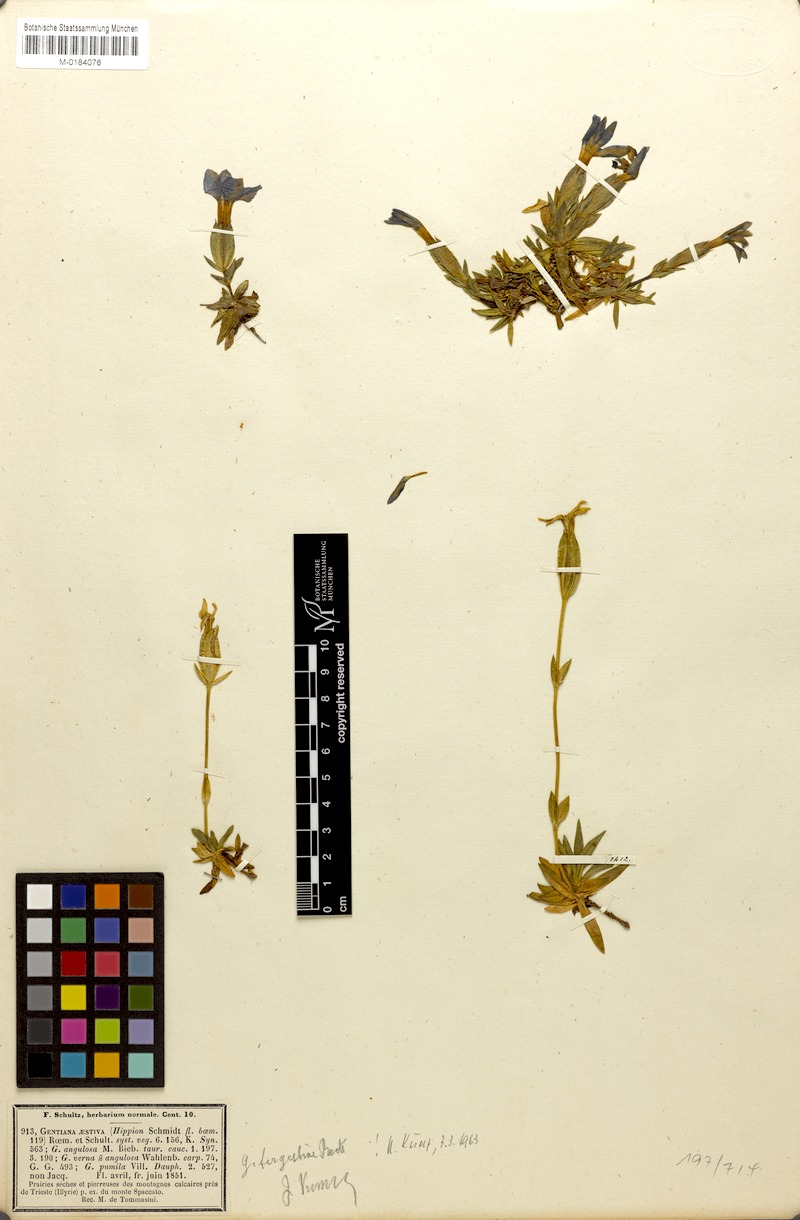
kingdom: Plantae
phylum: Tracheophyta
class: Magnoliopsida
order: Gentianales
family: Gentianaceae
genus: Gentiana
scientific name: Gentiana verna
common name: Spring gentian
